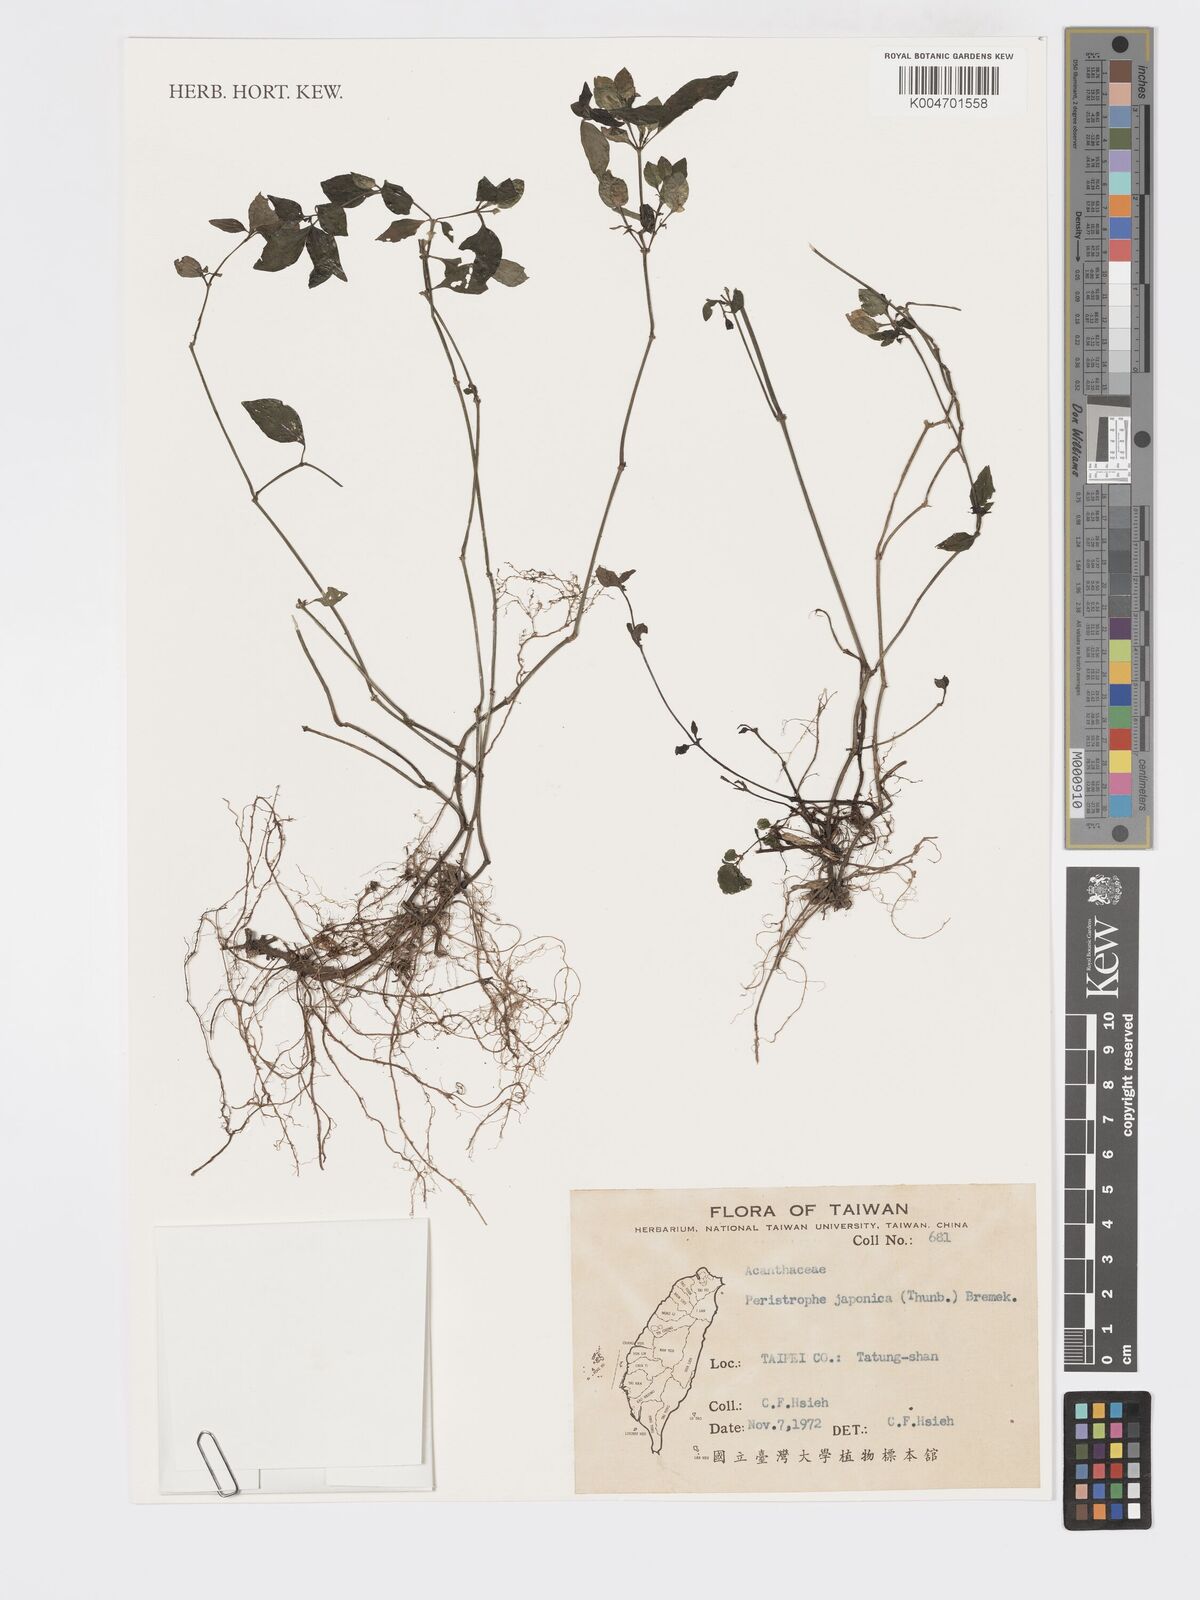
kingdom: Plantae
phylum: Tracheophyta
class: Magnoliopsida
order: Lamiales
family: Acanthaceae
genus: Dicliptera
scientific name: Dicliptera chinensis
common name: Chinese foldwing
